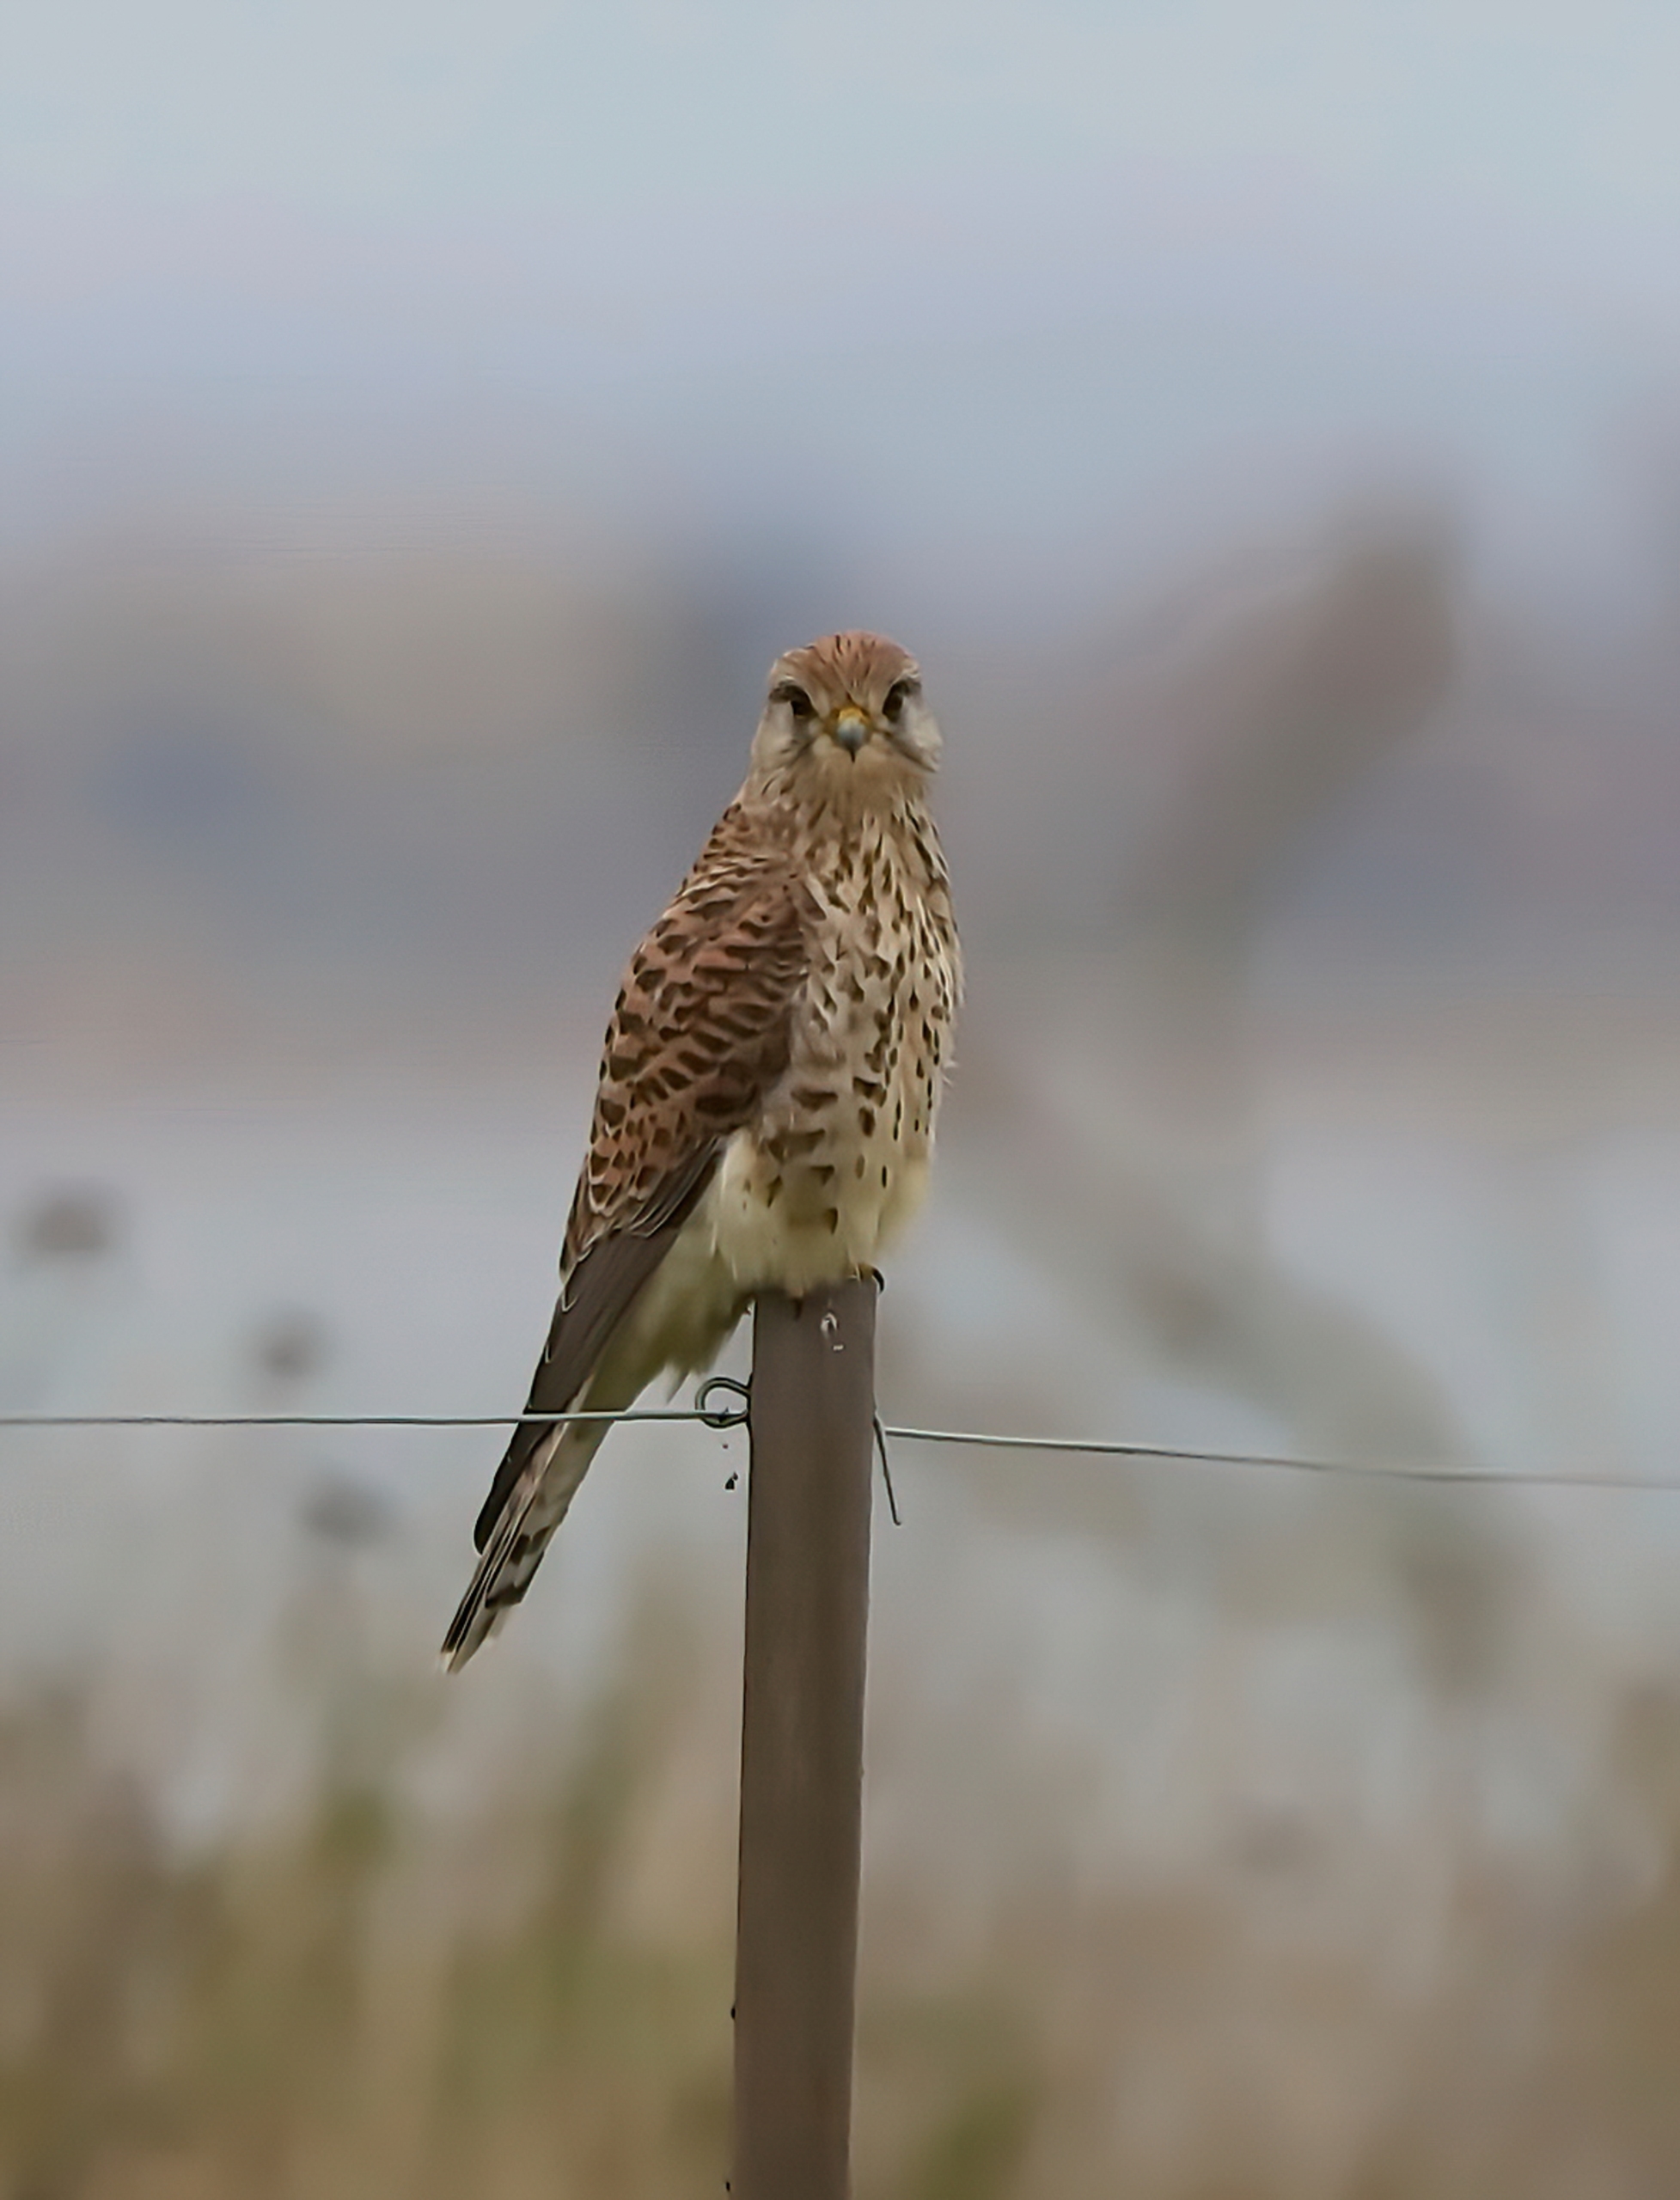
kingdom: Animalia
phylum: Chordata
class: Aves
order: Falconiformes
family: Falconidae
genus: Falco
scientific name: Falco tinnunculus
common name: Tårnfalk
